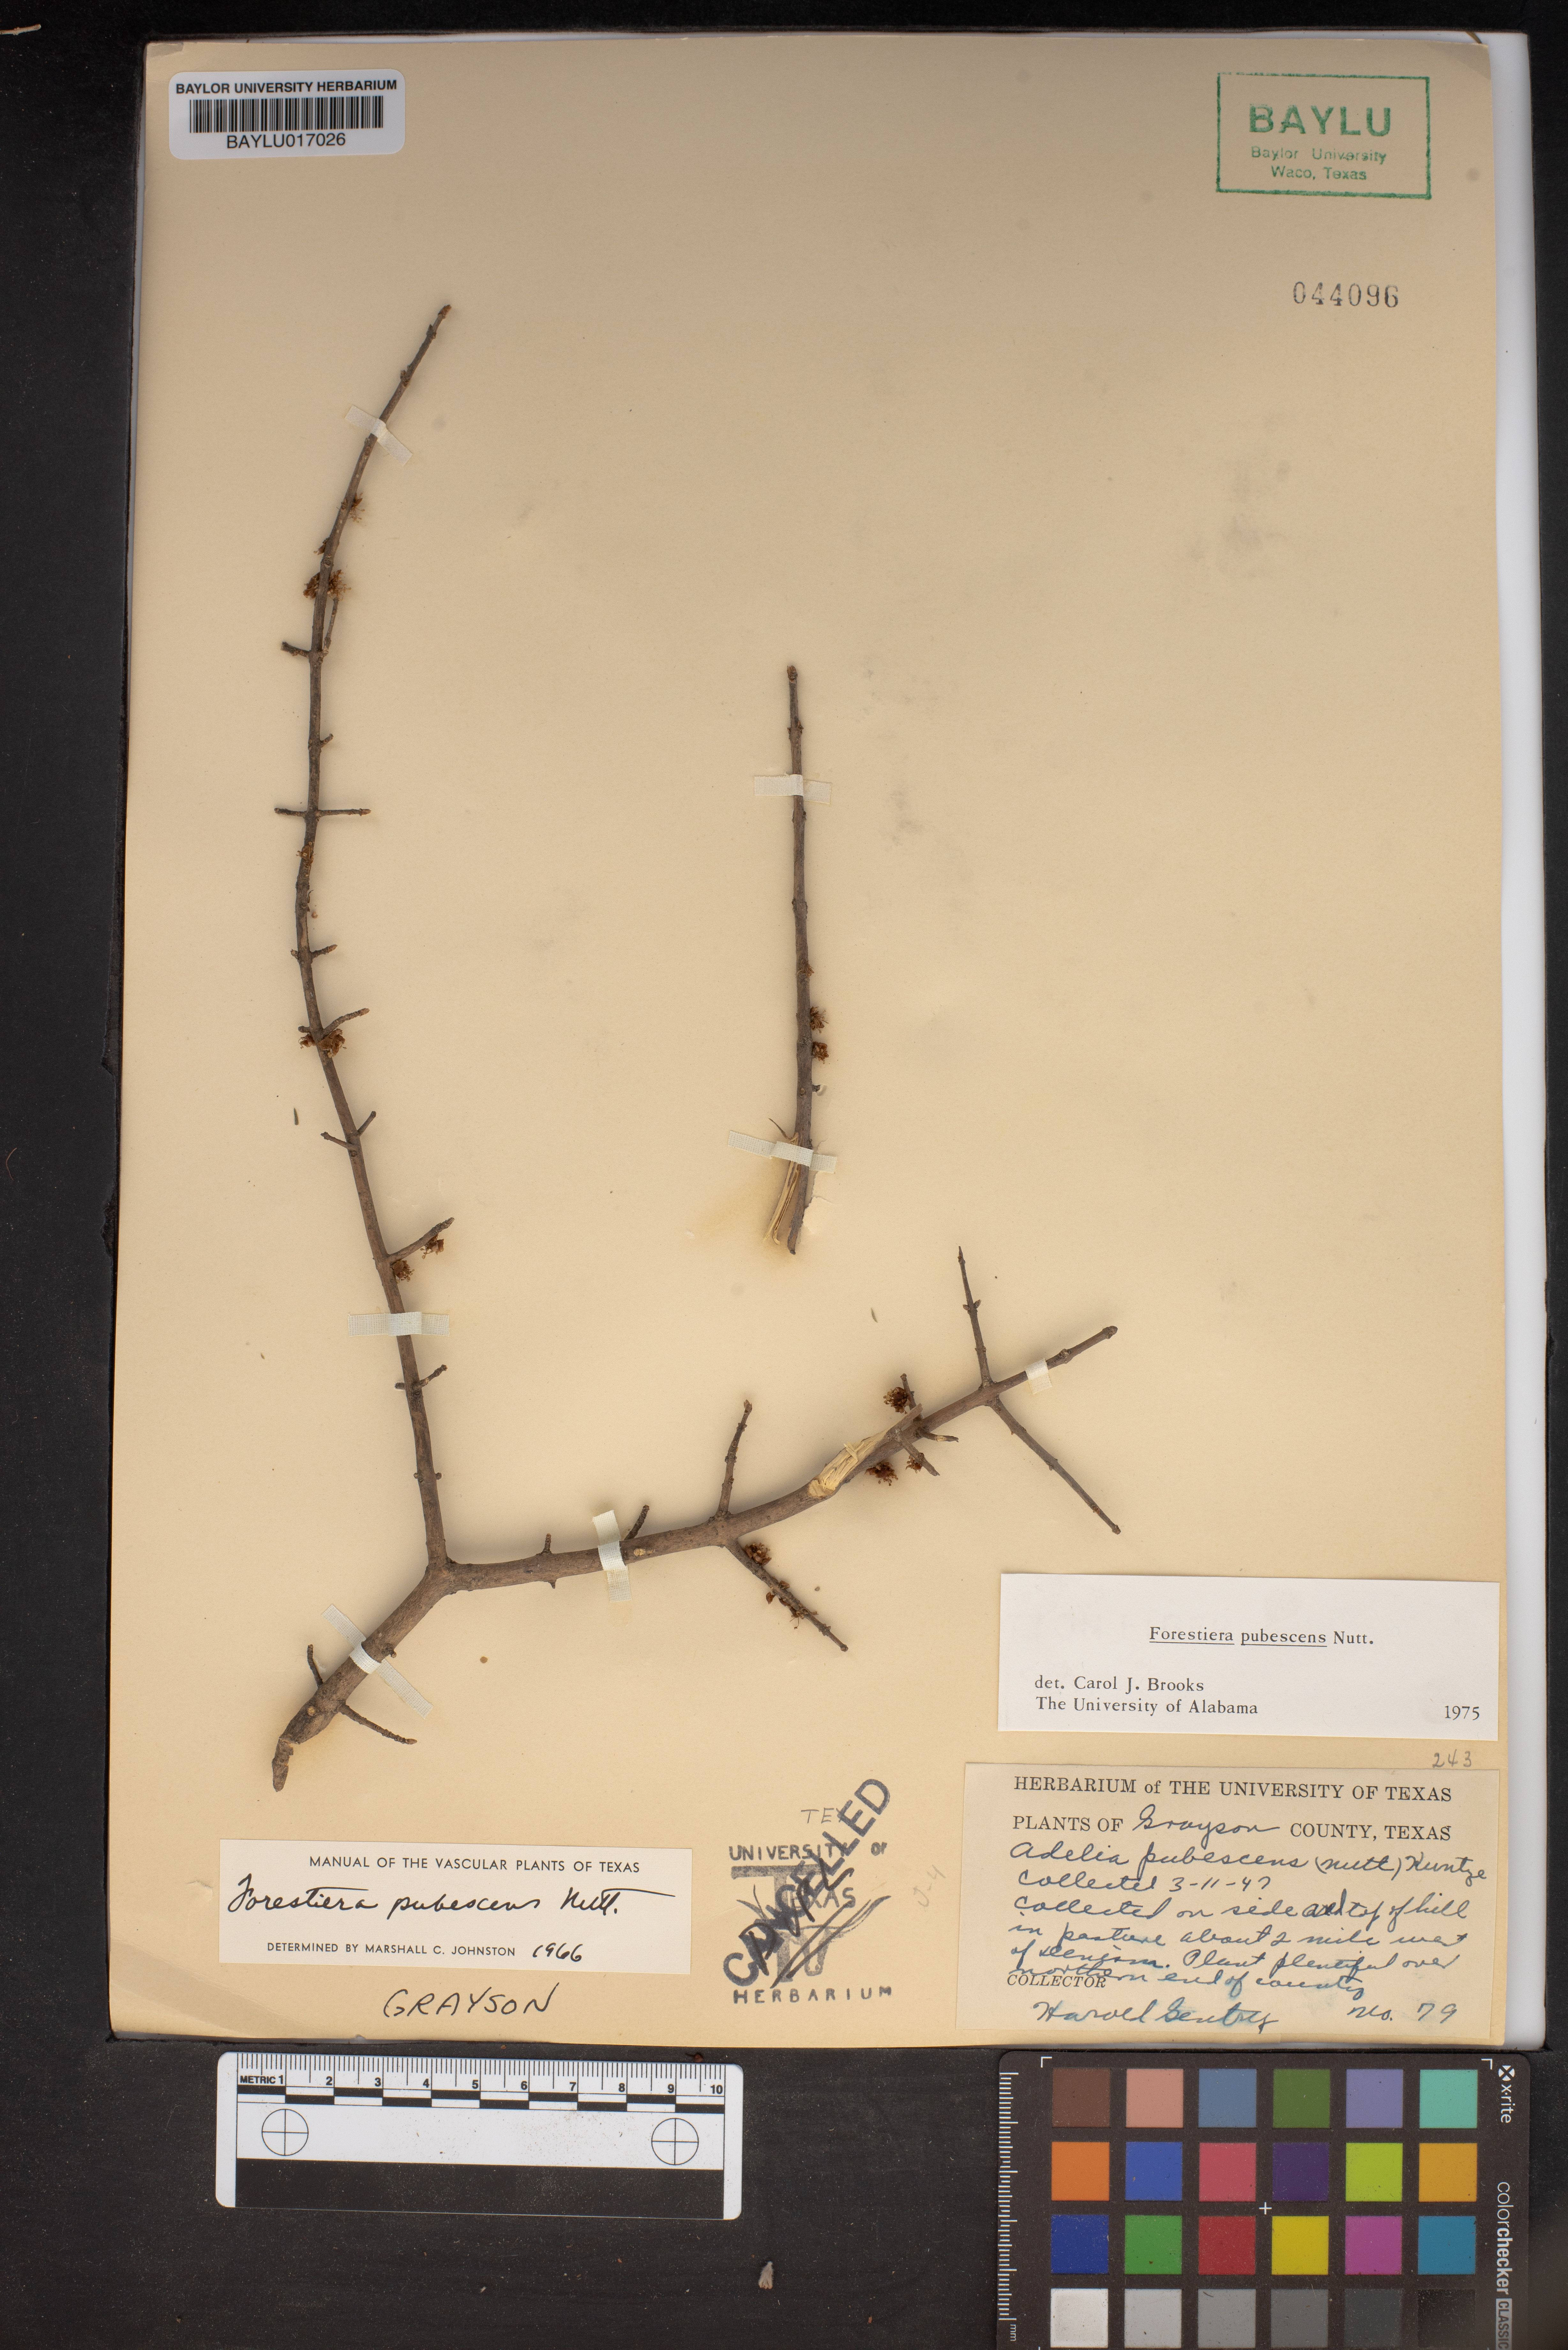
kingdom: Plantae
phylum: Tracheophyta
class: Magnoliopsida
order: Lamiales
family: Oleaceae
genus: Forestiera
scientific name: Forestiera pubescens
